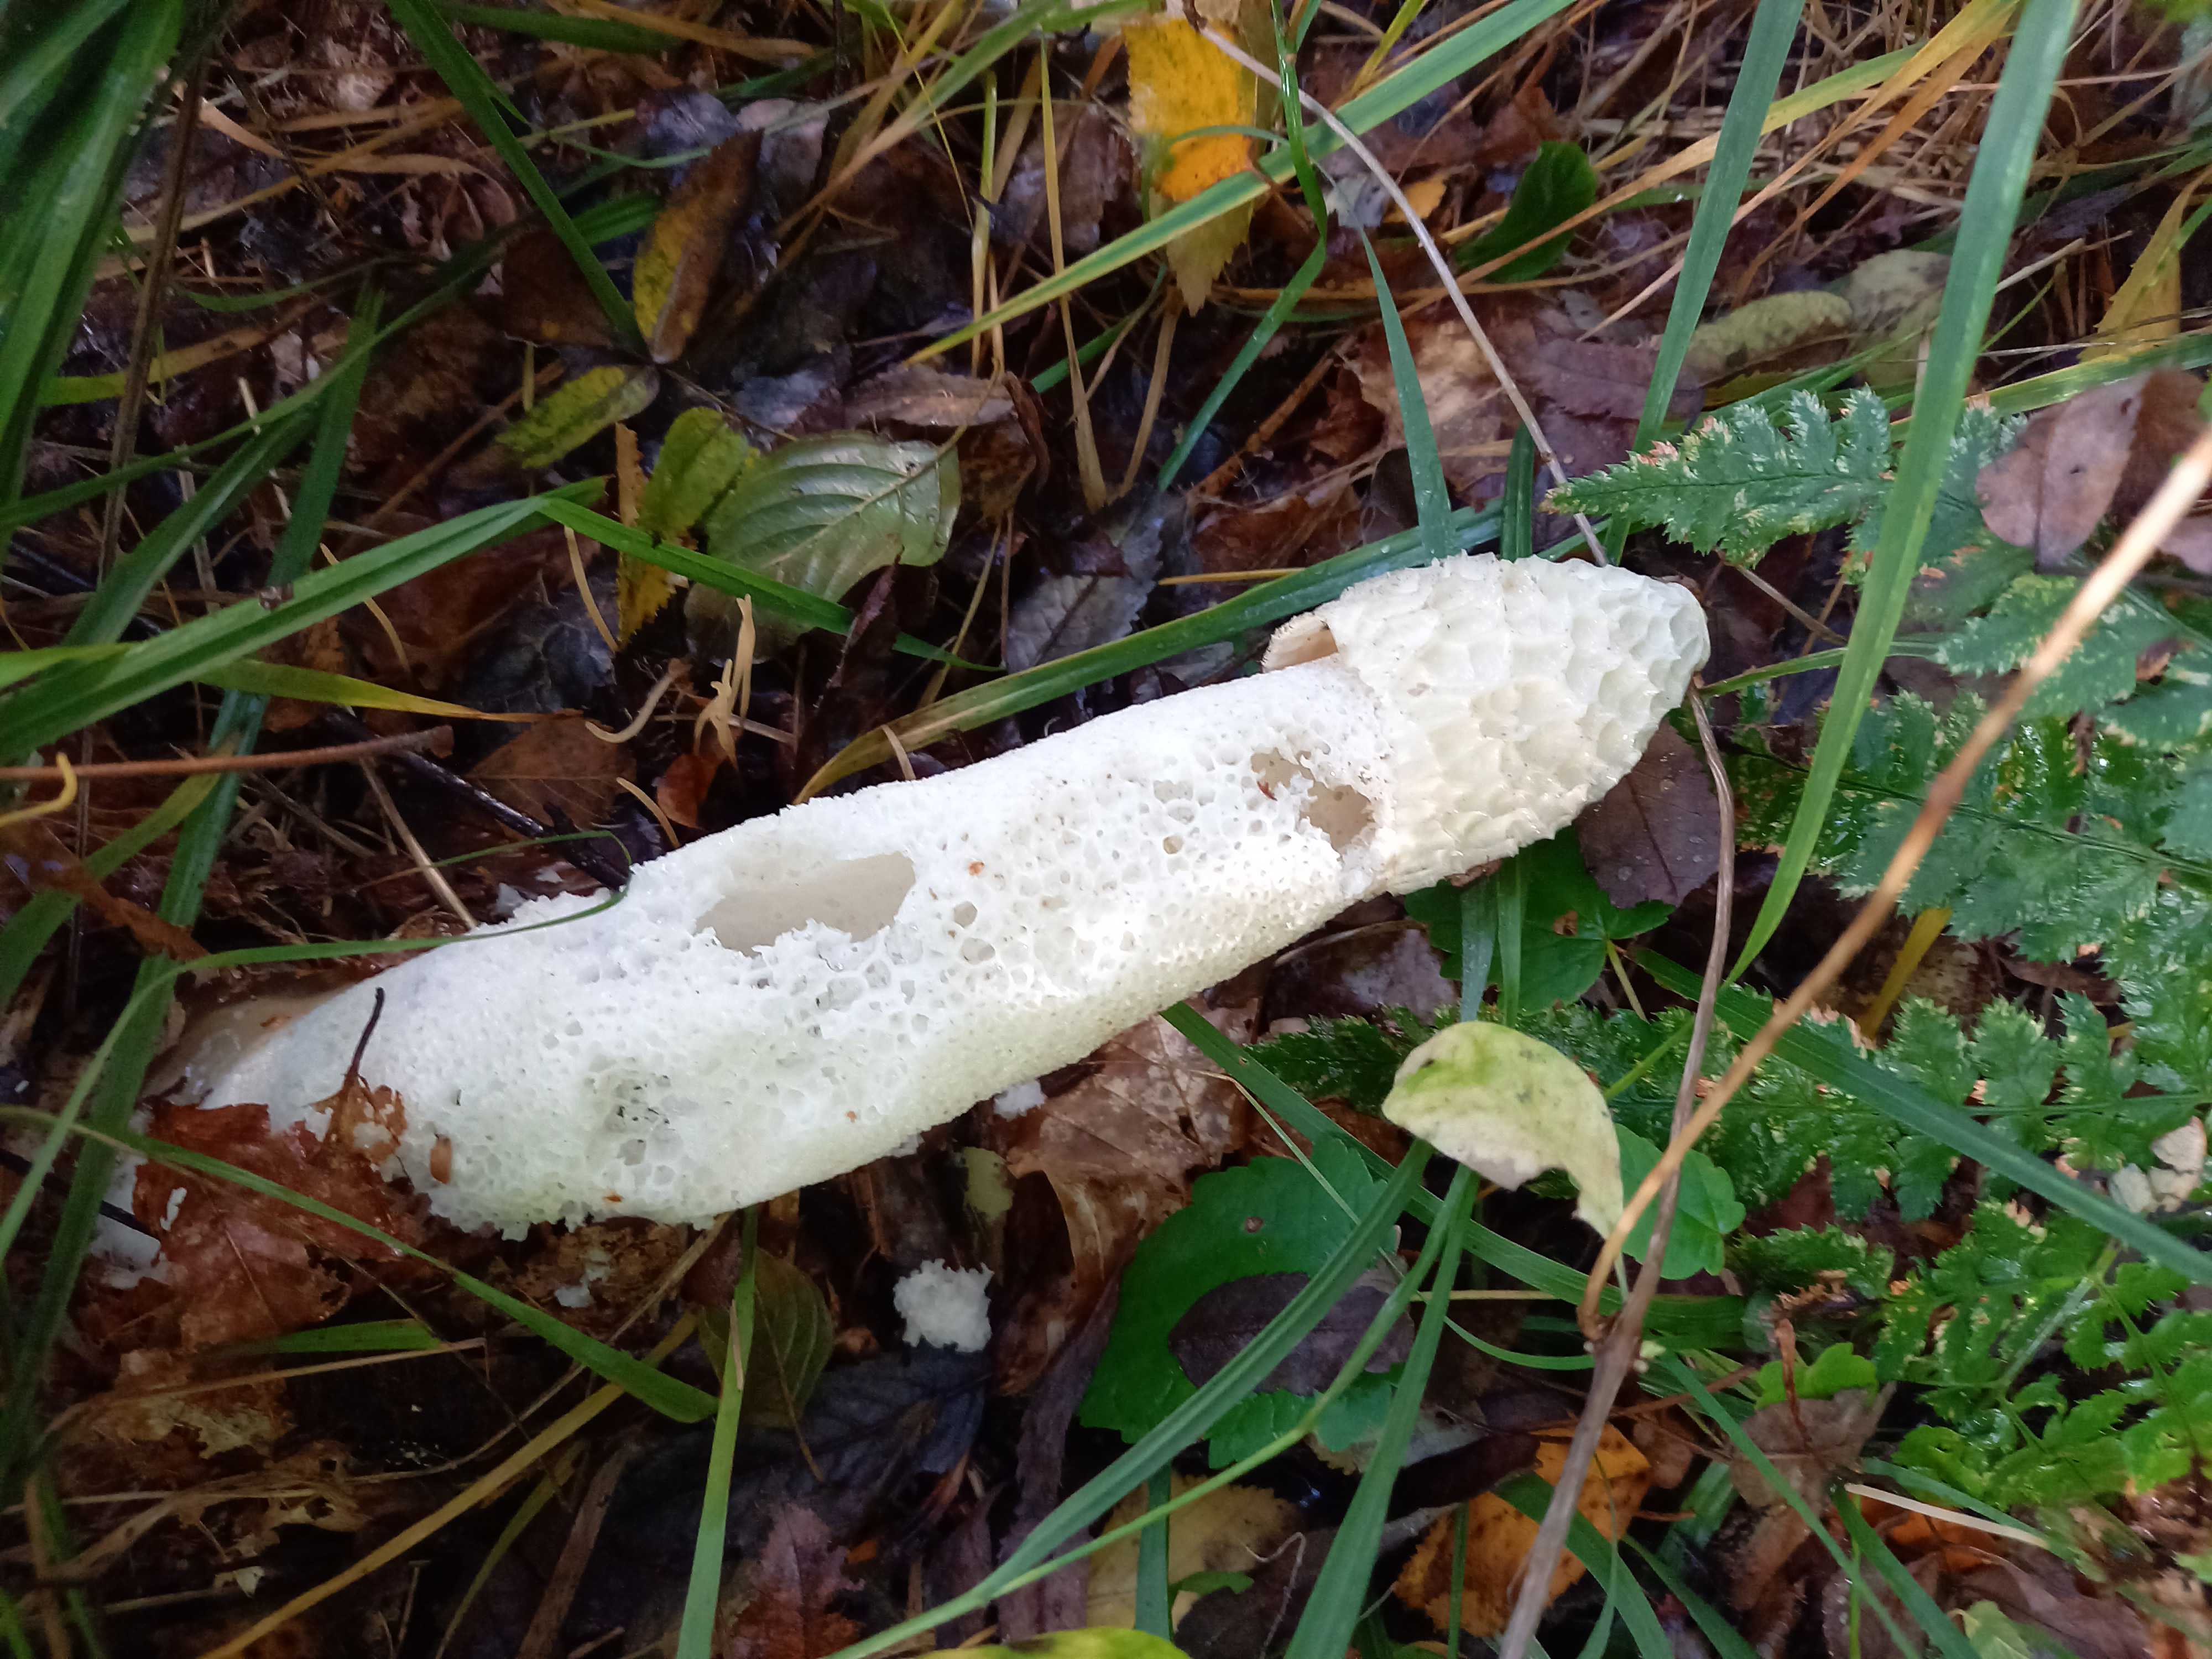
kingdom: Fungi
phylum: Basidiomycota
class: Agaricomycetes
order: Phallales
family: Phallaceae
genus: Phallus
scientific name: Phallus impudicus
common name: almindelig stinksvamp
